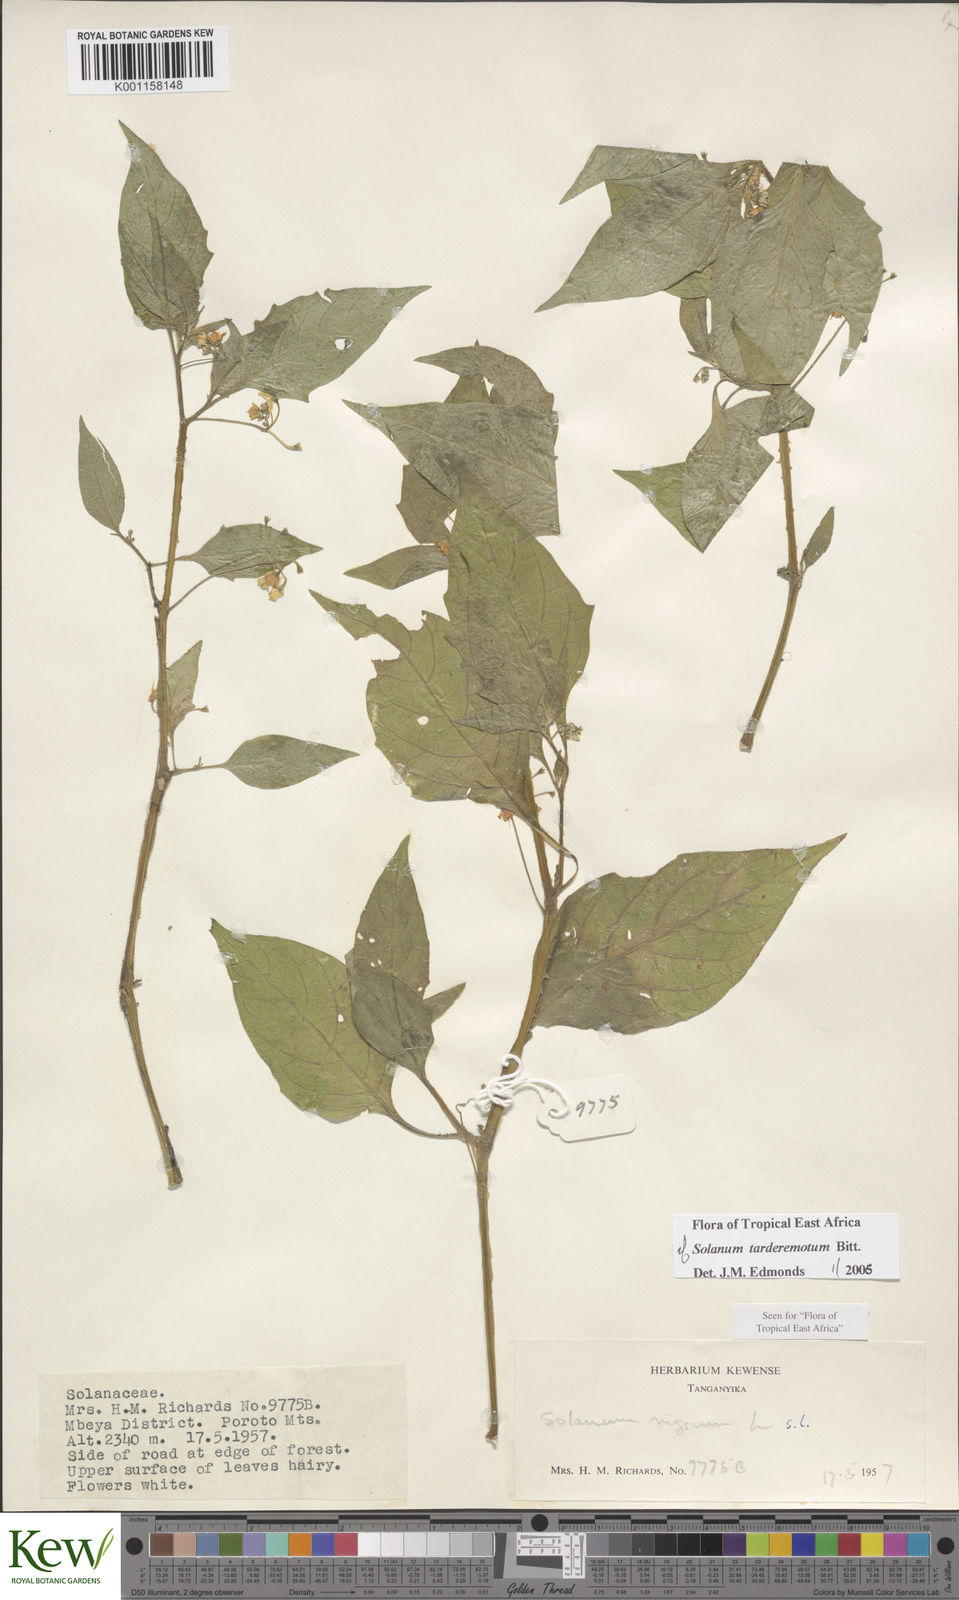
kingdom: Plantae
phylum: Tracheophyta
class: Magnoliopsida
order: Solanales
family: Solanaceae
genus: Solanum
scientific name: Solanum tarderemotum
